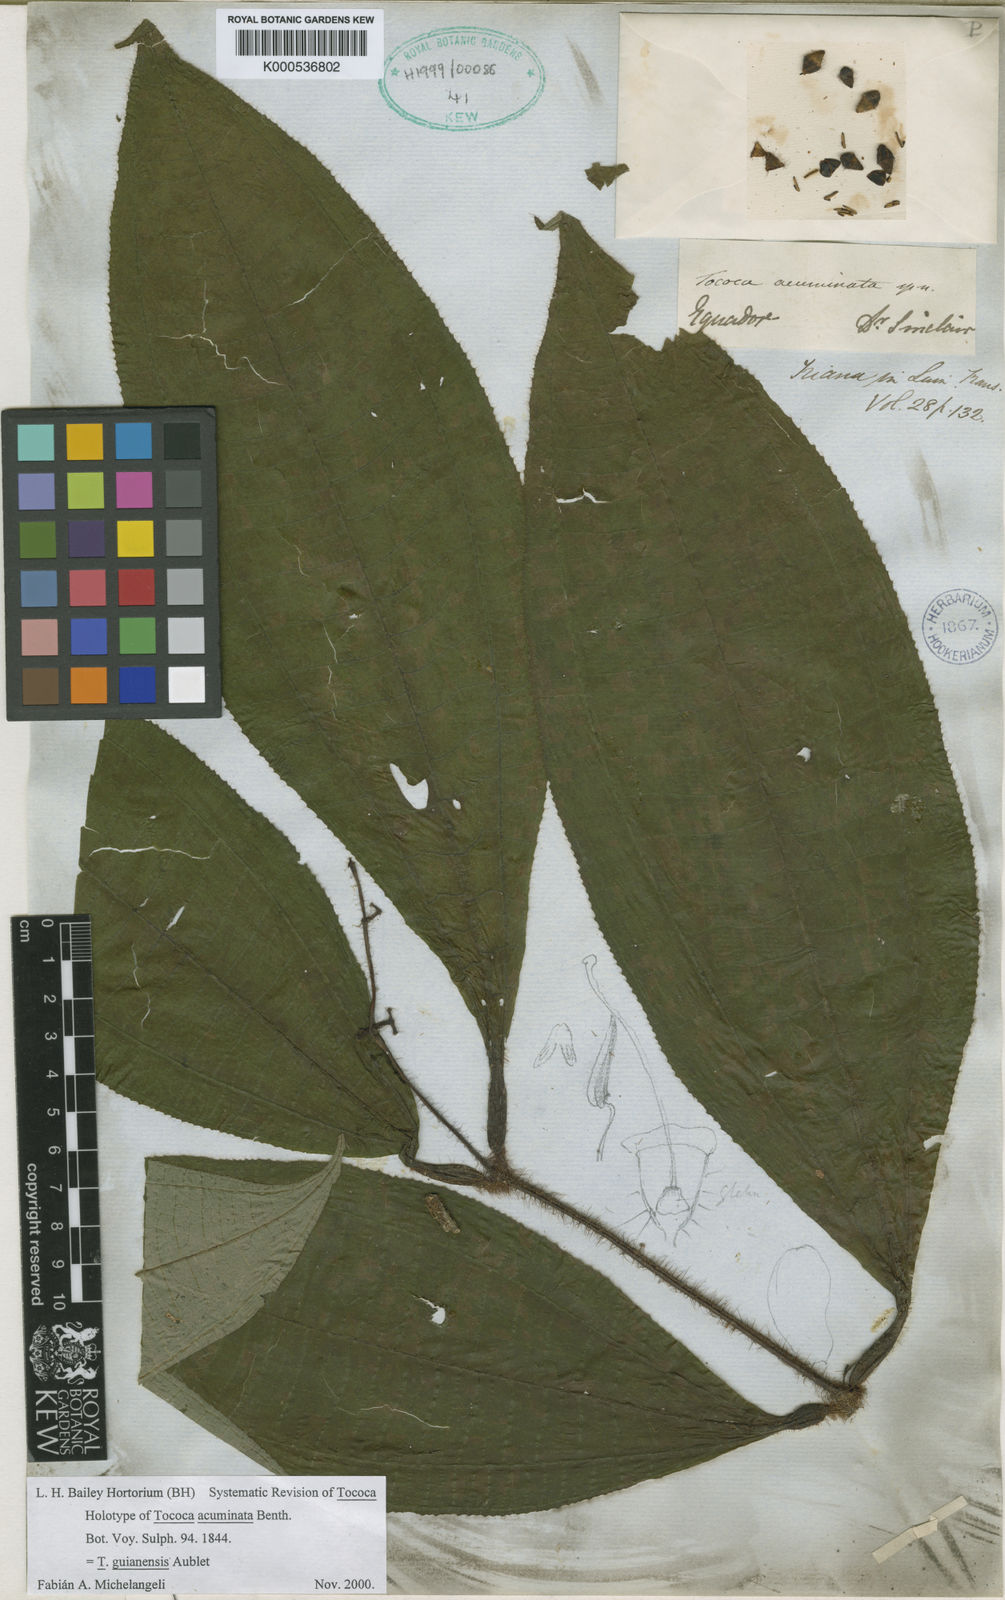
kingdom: Plantae
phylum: Tracheophyta
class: Magnoliopsida
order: Myrtales
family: Melastomataceae
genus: Miconia
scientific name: Miconia tococa
